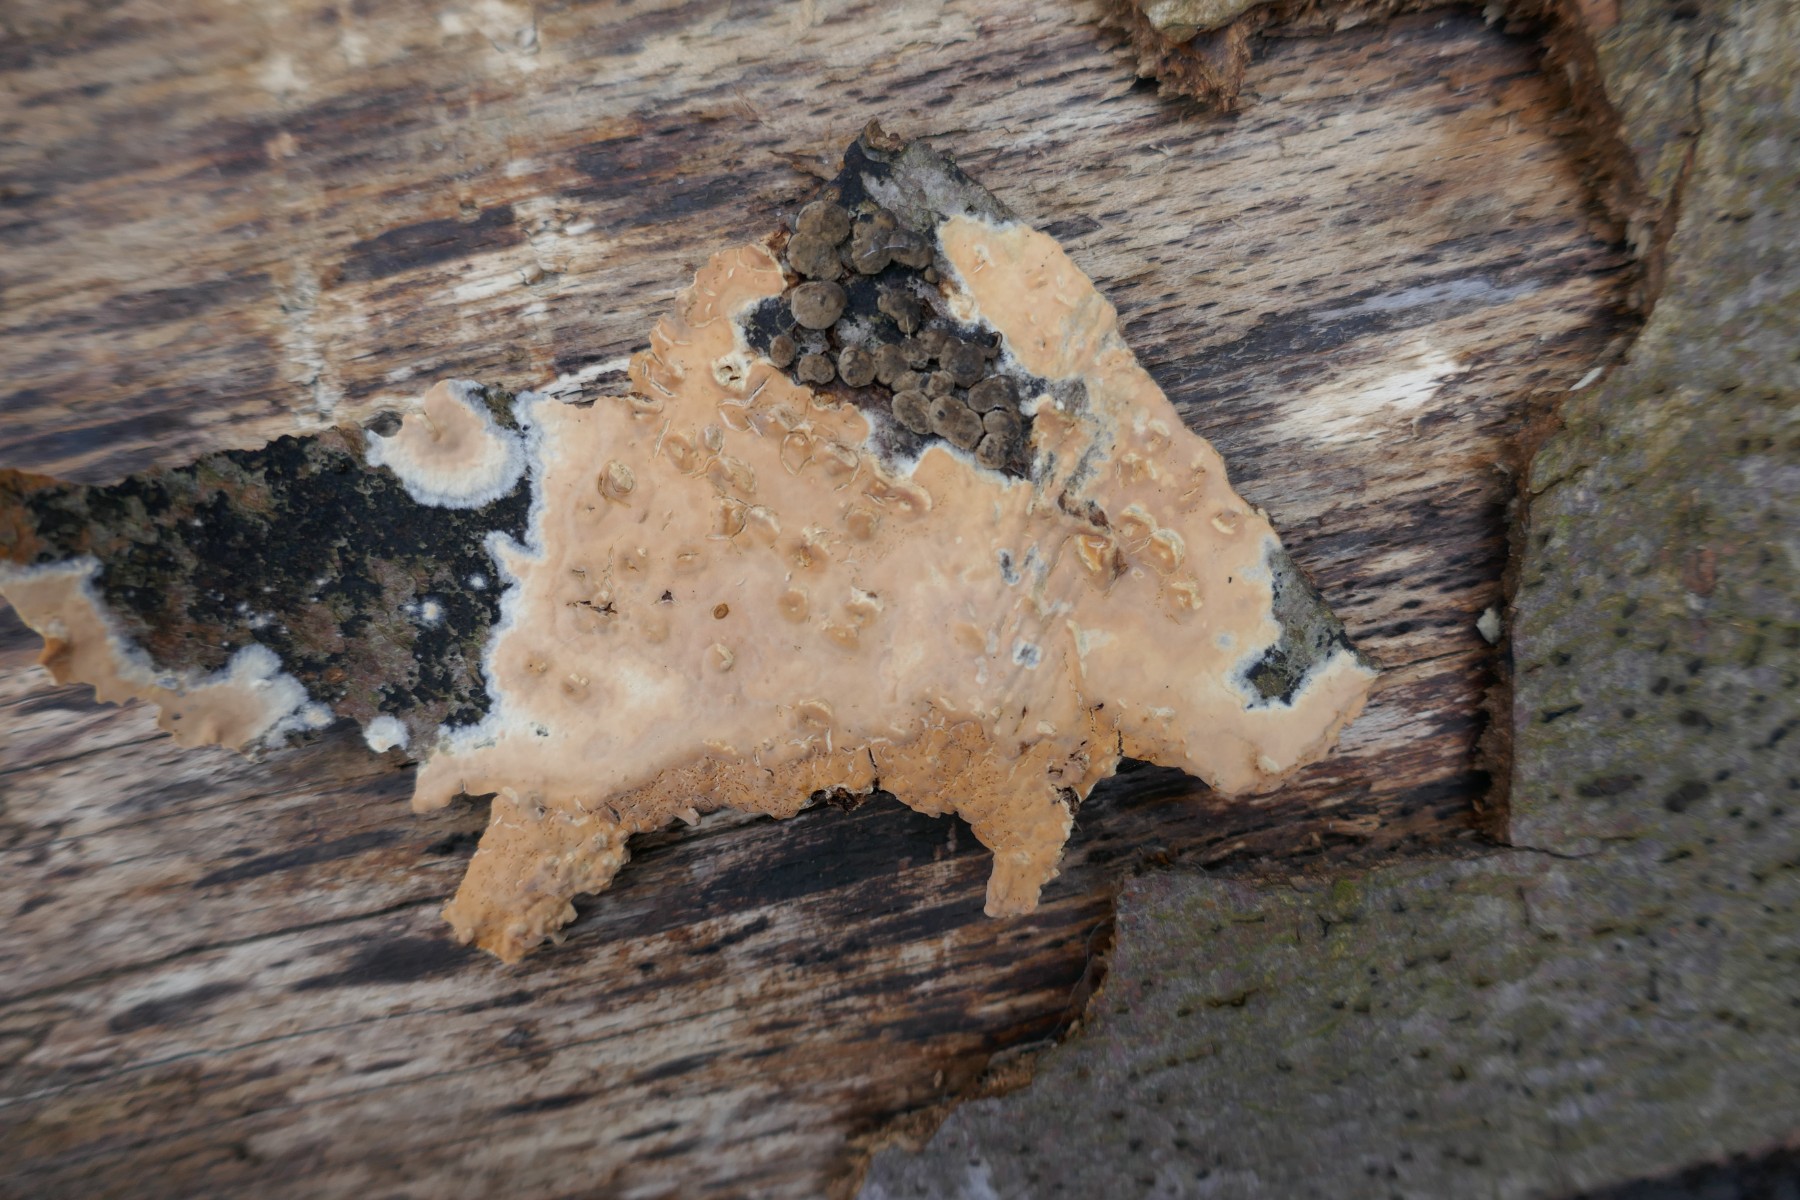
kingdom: Fungi
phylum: Basidiomycota
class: Agaricomycetes
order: Russulales
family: Peniophoraceae
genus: Peniophora
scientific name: Peniophora incarnata
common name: laksefarvet voksskind
